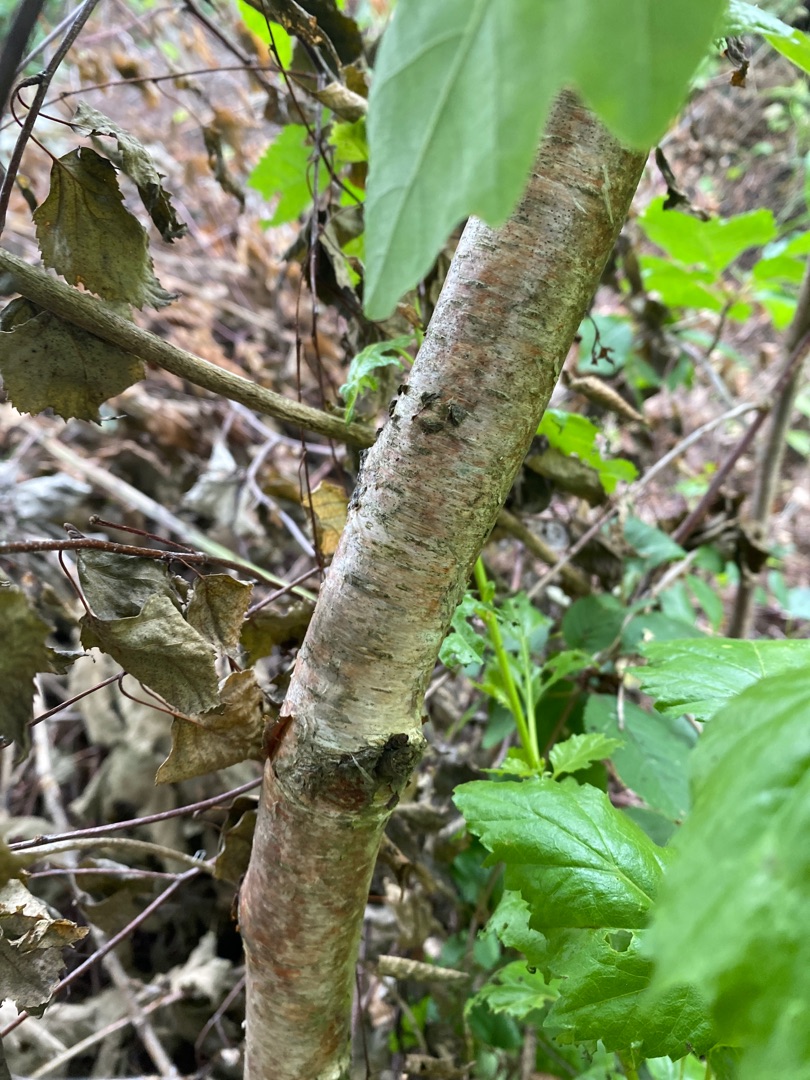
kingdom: Plantae
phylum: Tracheophyta
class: Magnoliopsida
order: Fagales
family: Betulaceae
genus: Betula
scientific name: Betula pendula
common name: Vorte-birk
